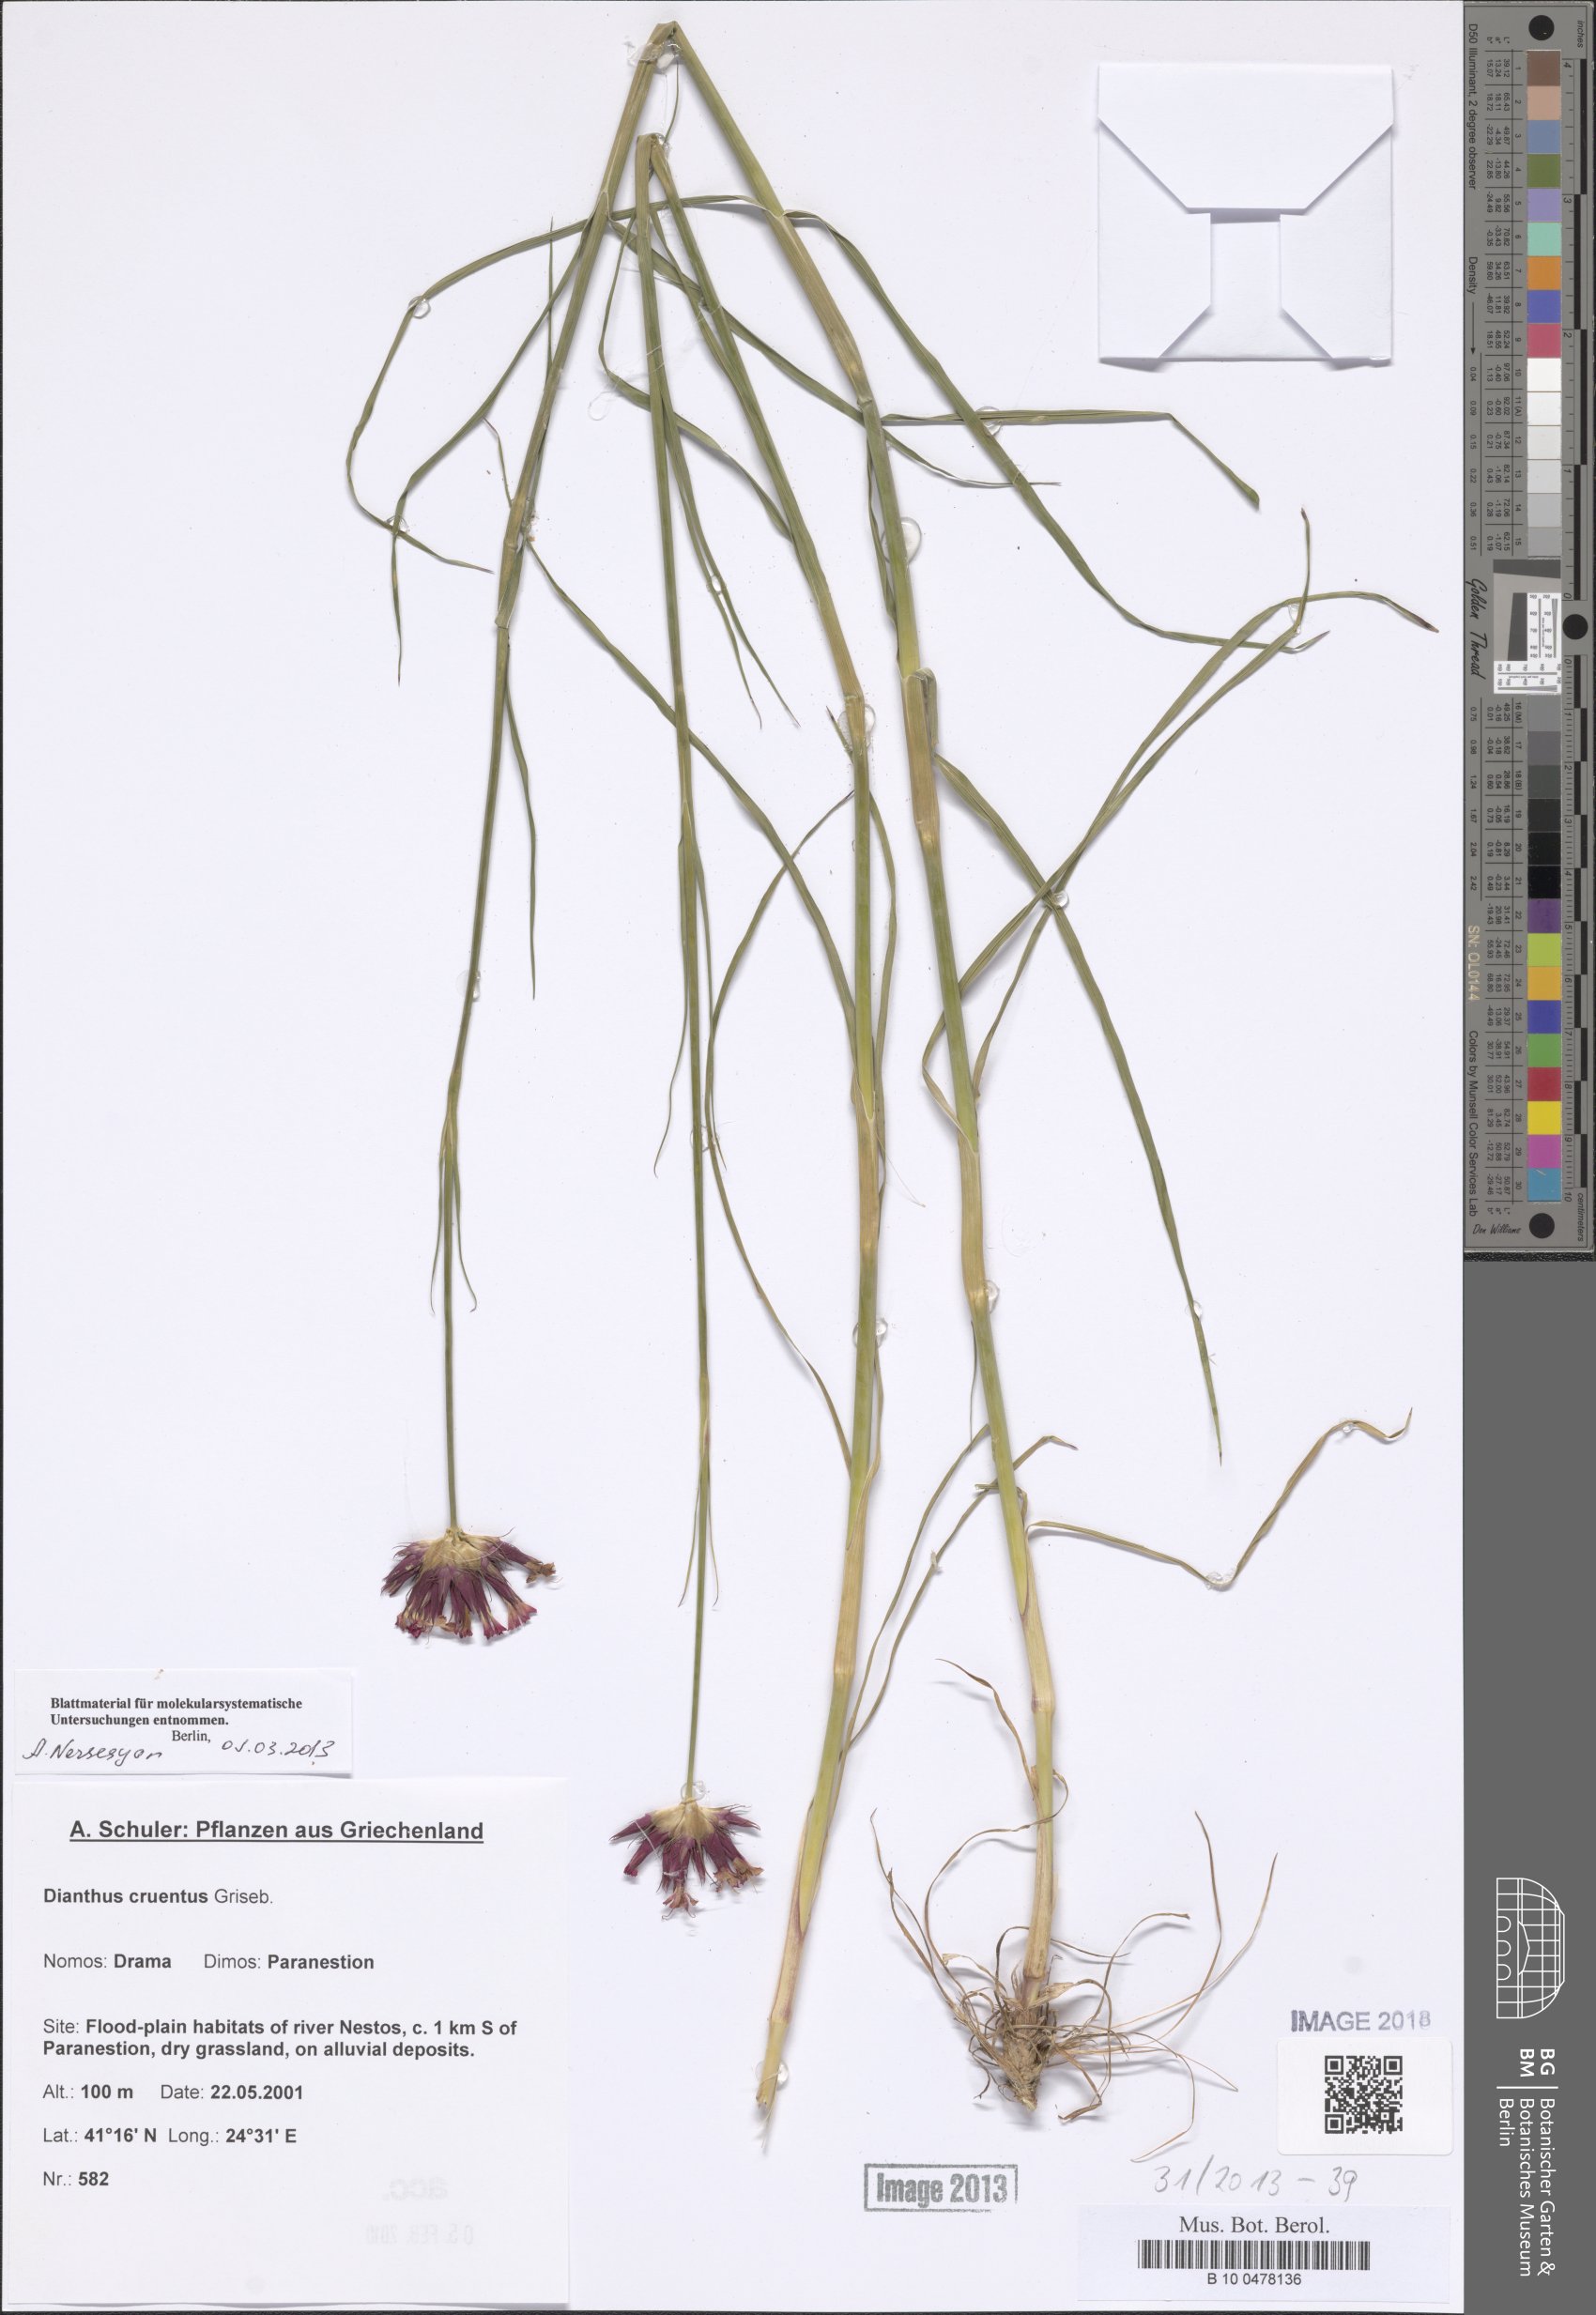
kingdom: Plantae
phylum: Tracheophyta
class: Magnoliopsida
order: Caryophyllales
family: Caryophyllaceae
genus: Dianthus
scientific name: Dianthus cruentus
